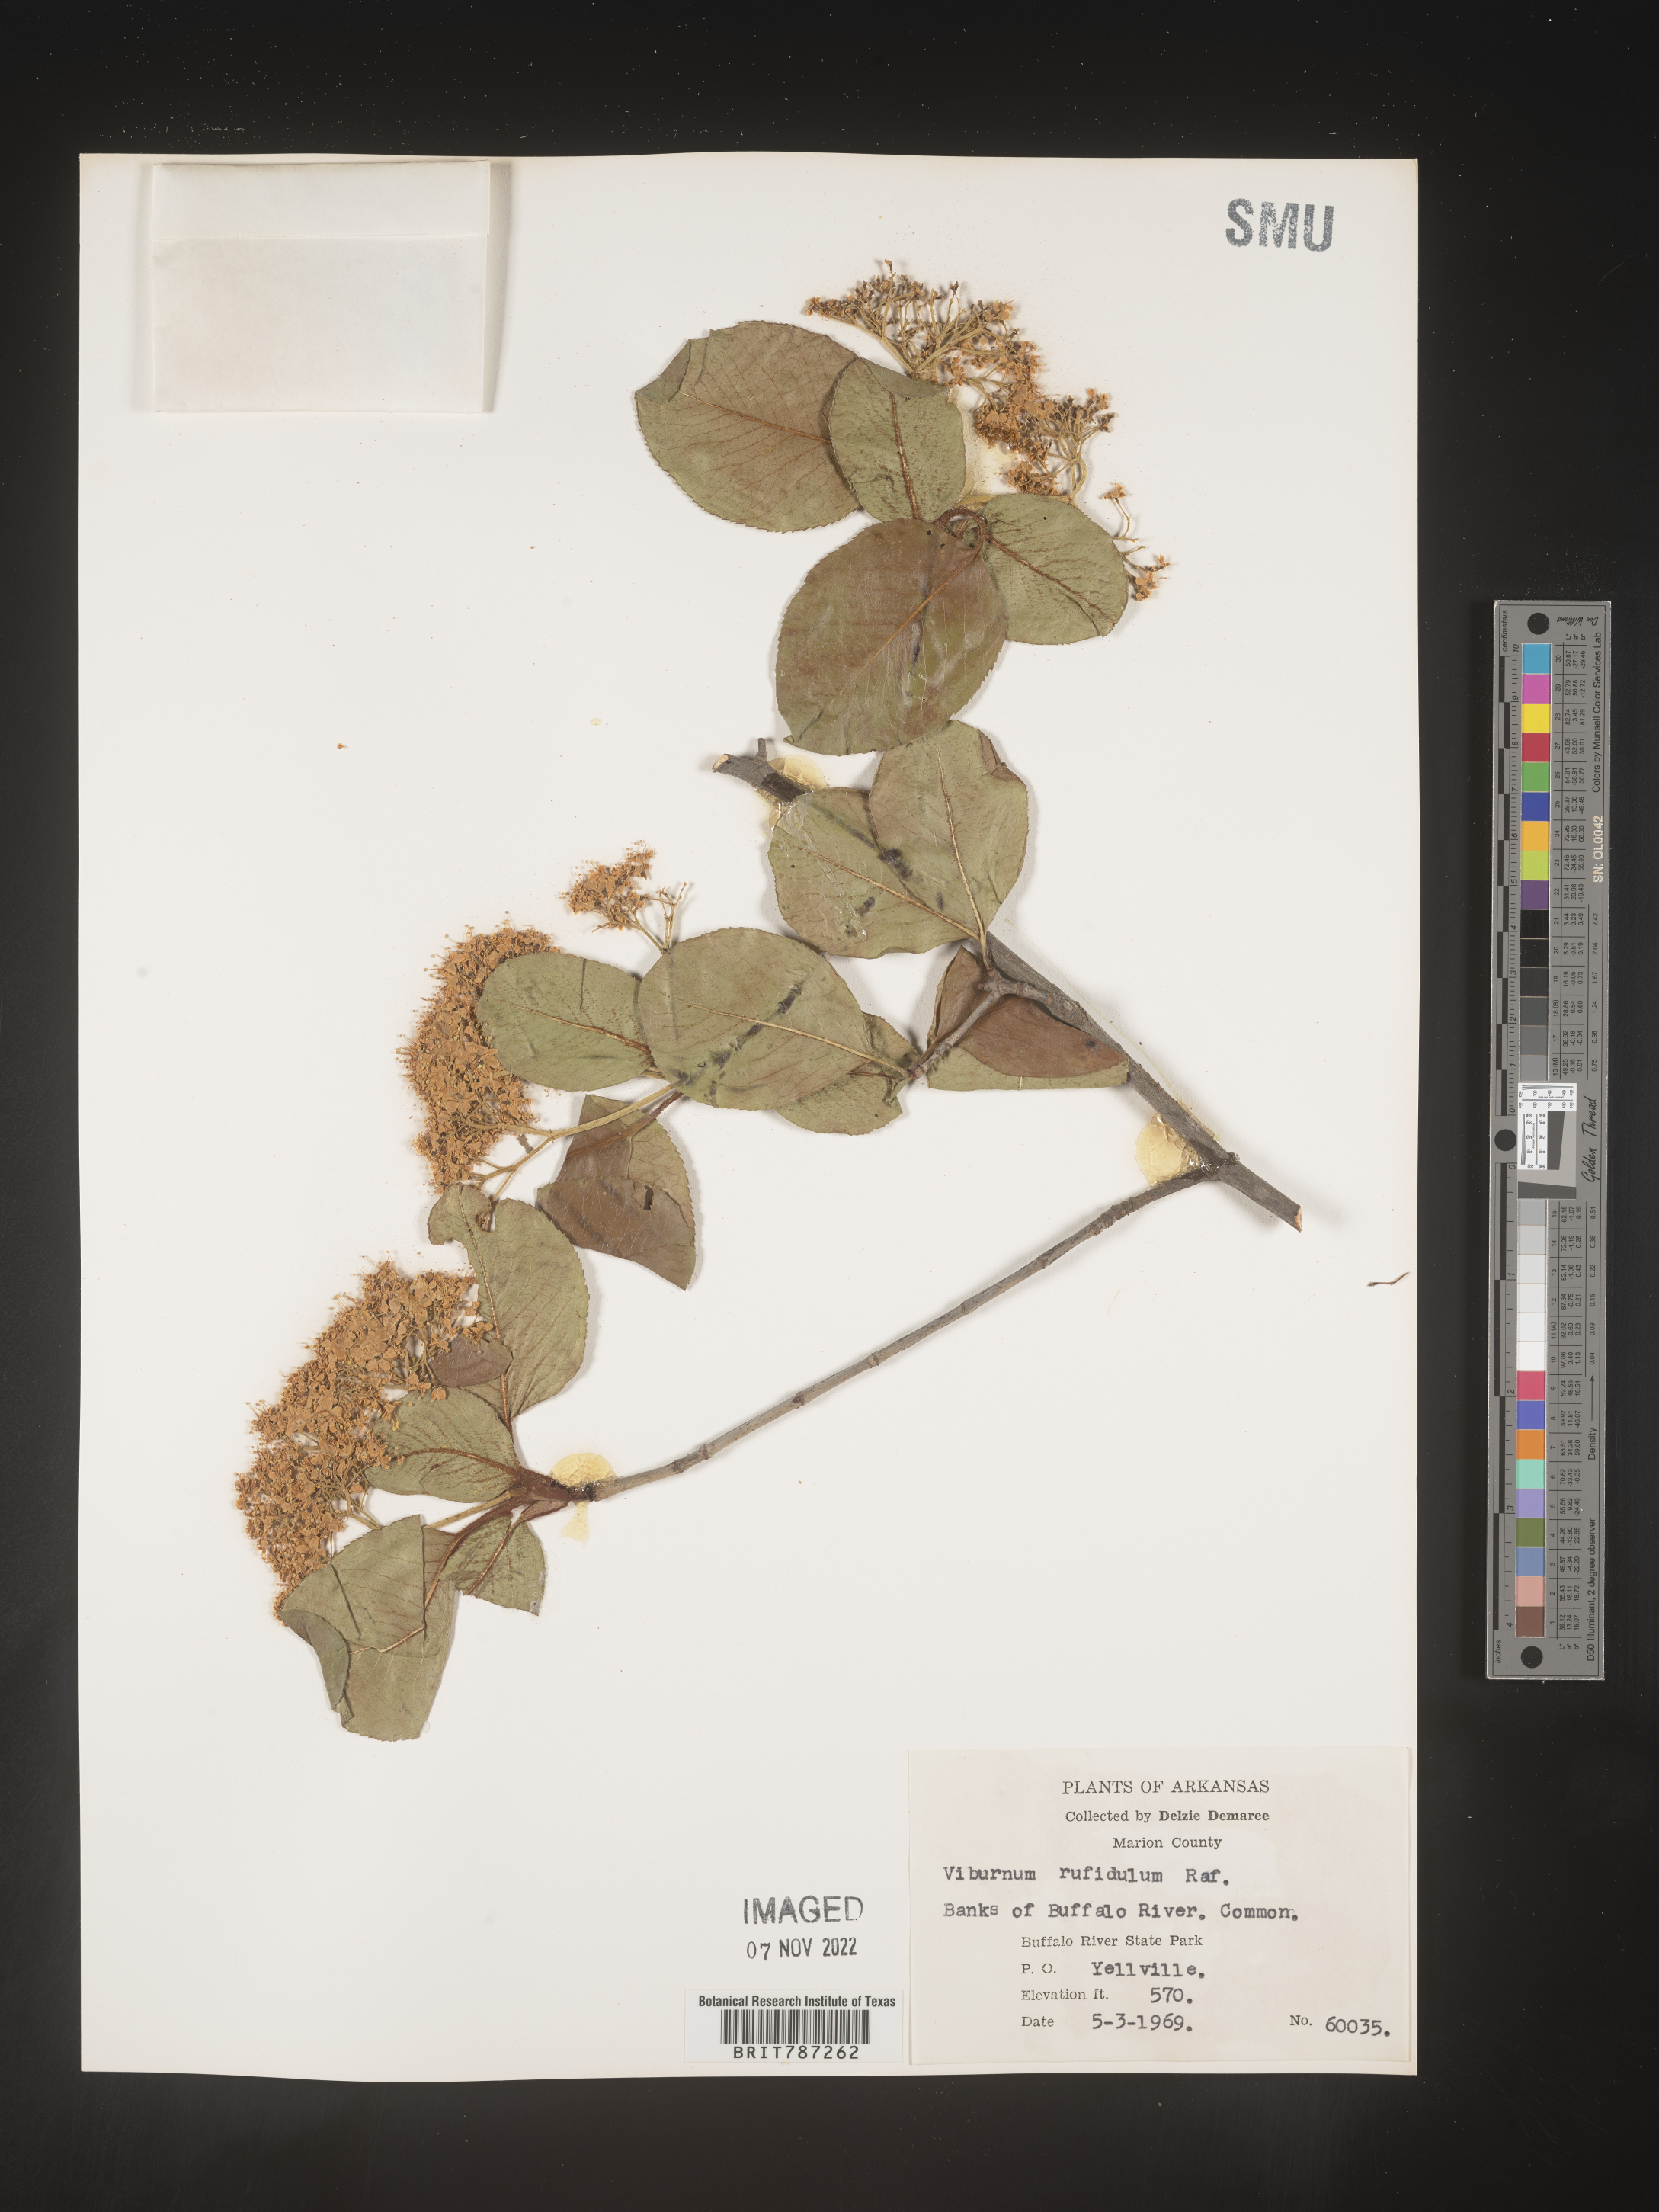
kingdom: Plantae
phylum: Tracheophyta
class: Magnoliopsida
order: Dipsacales
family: Viburnaceae
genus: Viburnum
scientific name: Viburnum rufidulum
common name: Blue haw
